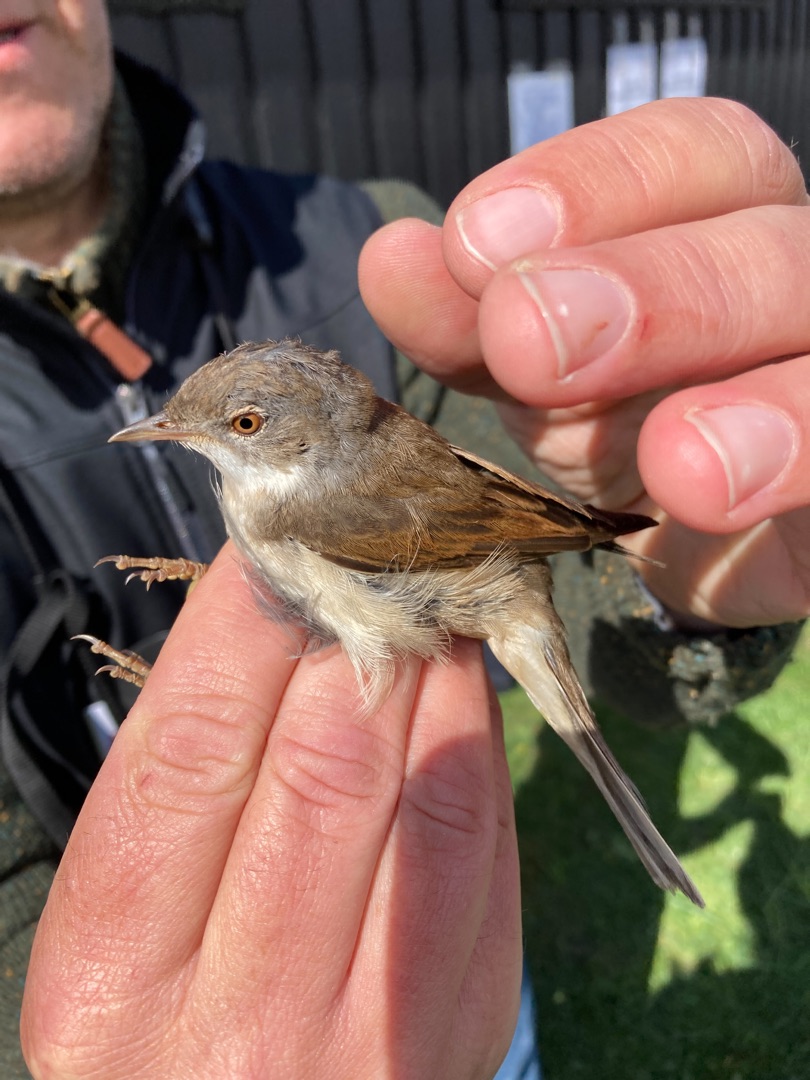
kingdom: Animalia
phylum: Chordata
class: Aves
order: Passeriformes
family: Sylviidae
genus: Sylvia
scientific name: Sylvia communis
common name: Tornsanger
